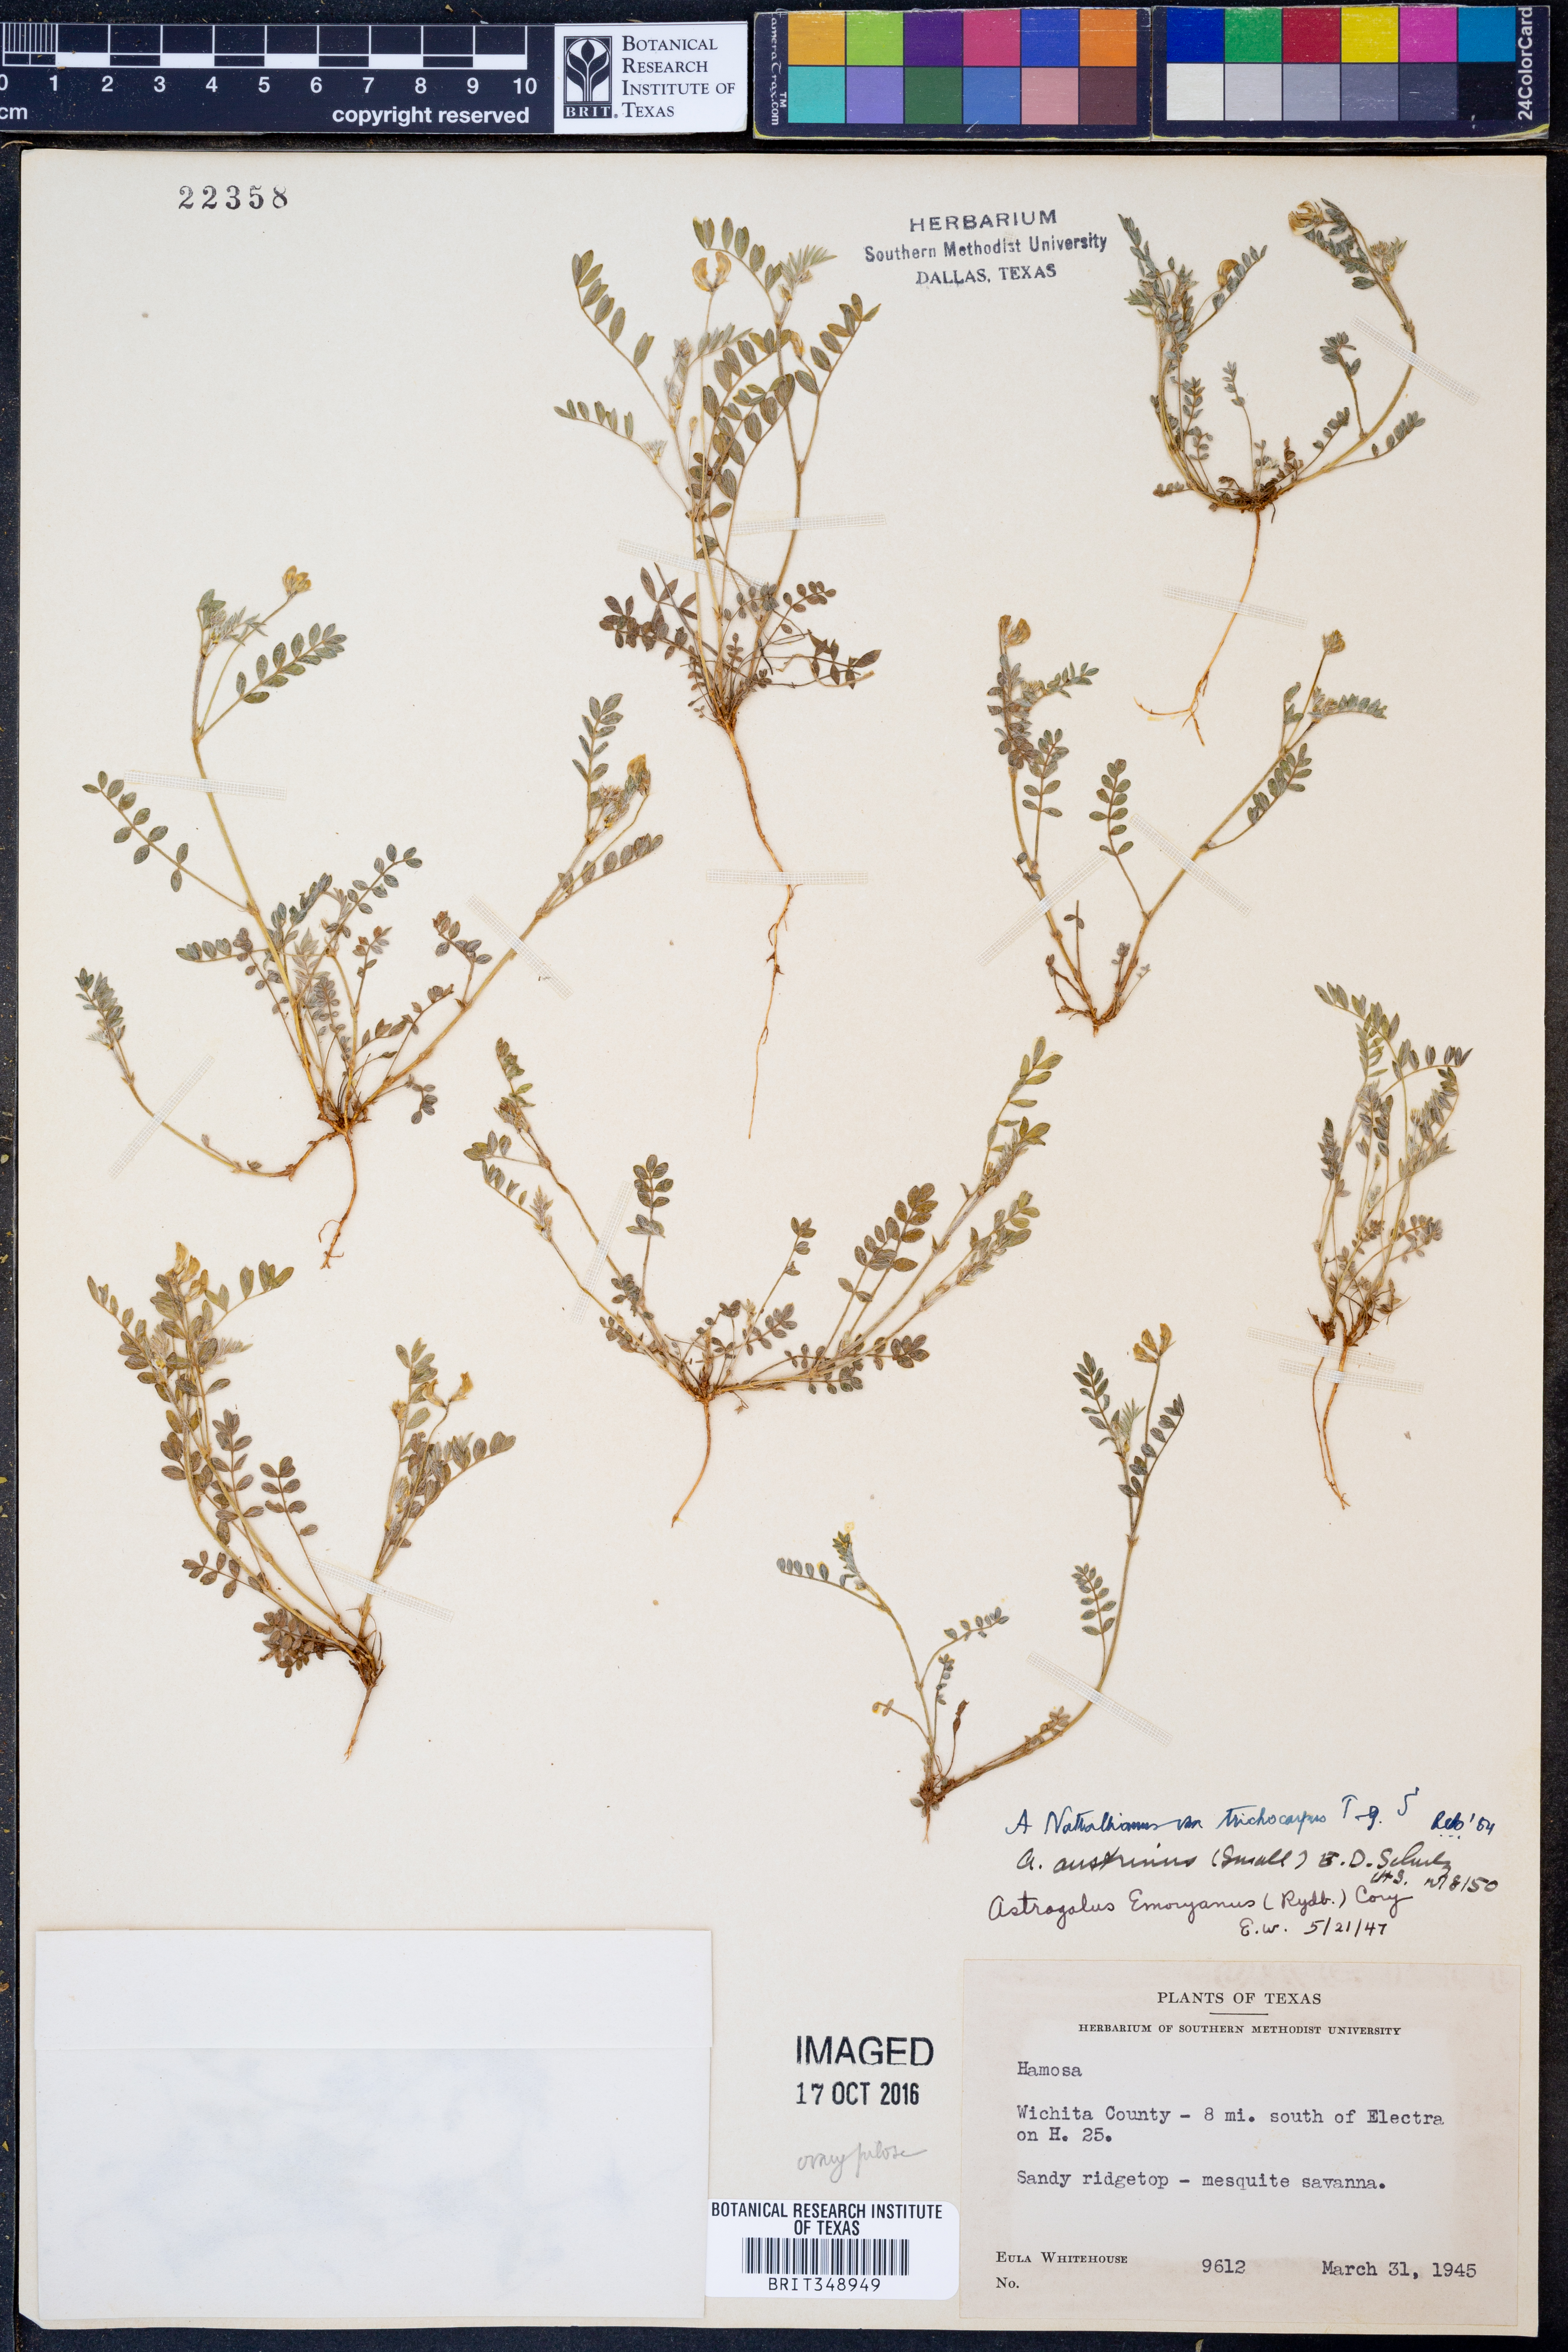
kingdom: Plantae
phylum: Tracheophyta
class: Magnoliopsida
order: Fabales
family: Fabaceae
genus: Astragalus
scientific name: Astragalus nuttallianus
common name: Smallflowered milkvetch
